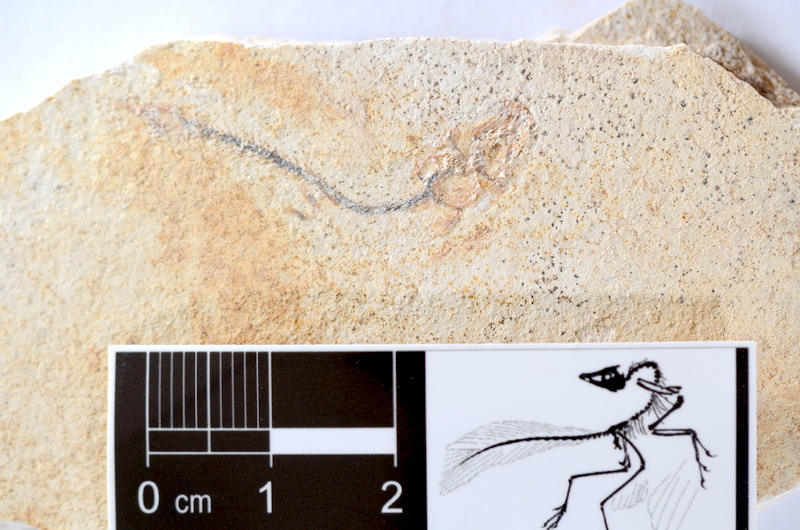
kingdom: Animalia
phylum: Chordata
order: Salmoniformes
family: Orthogonikleithridae
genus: Orthogonikleithrus
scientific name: Orthogonikleithrus hoelli
